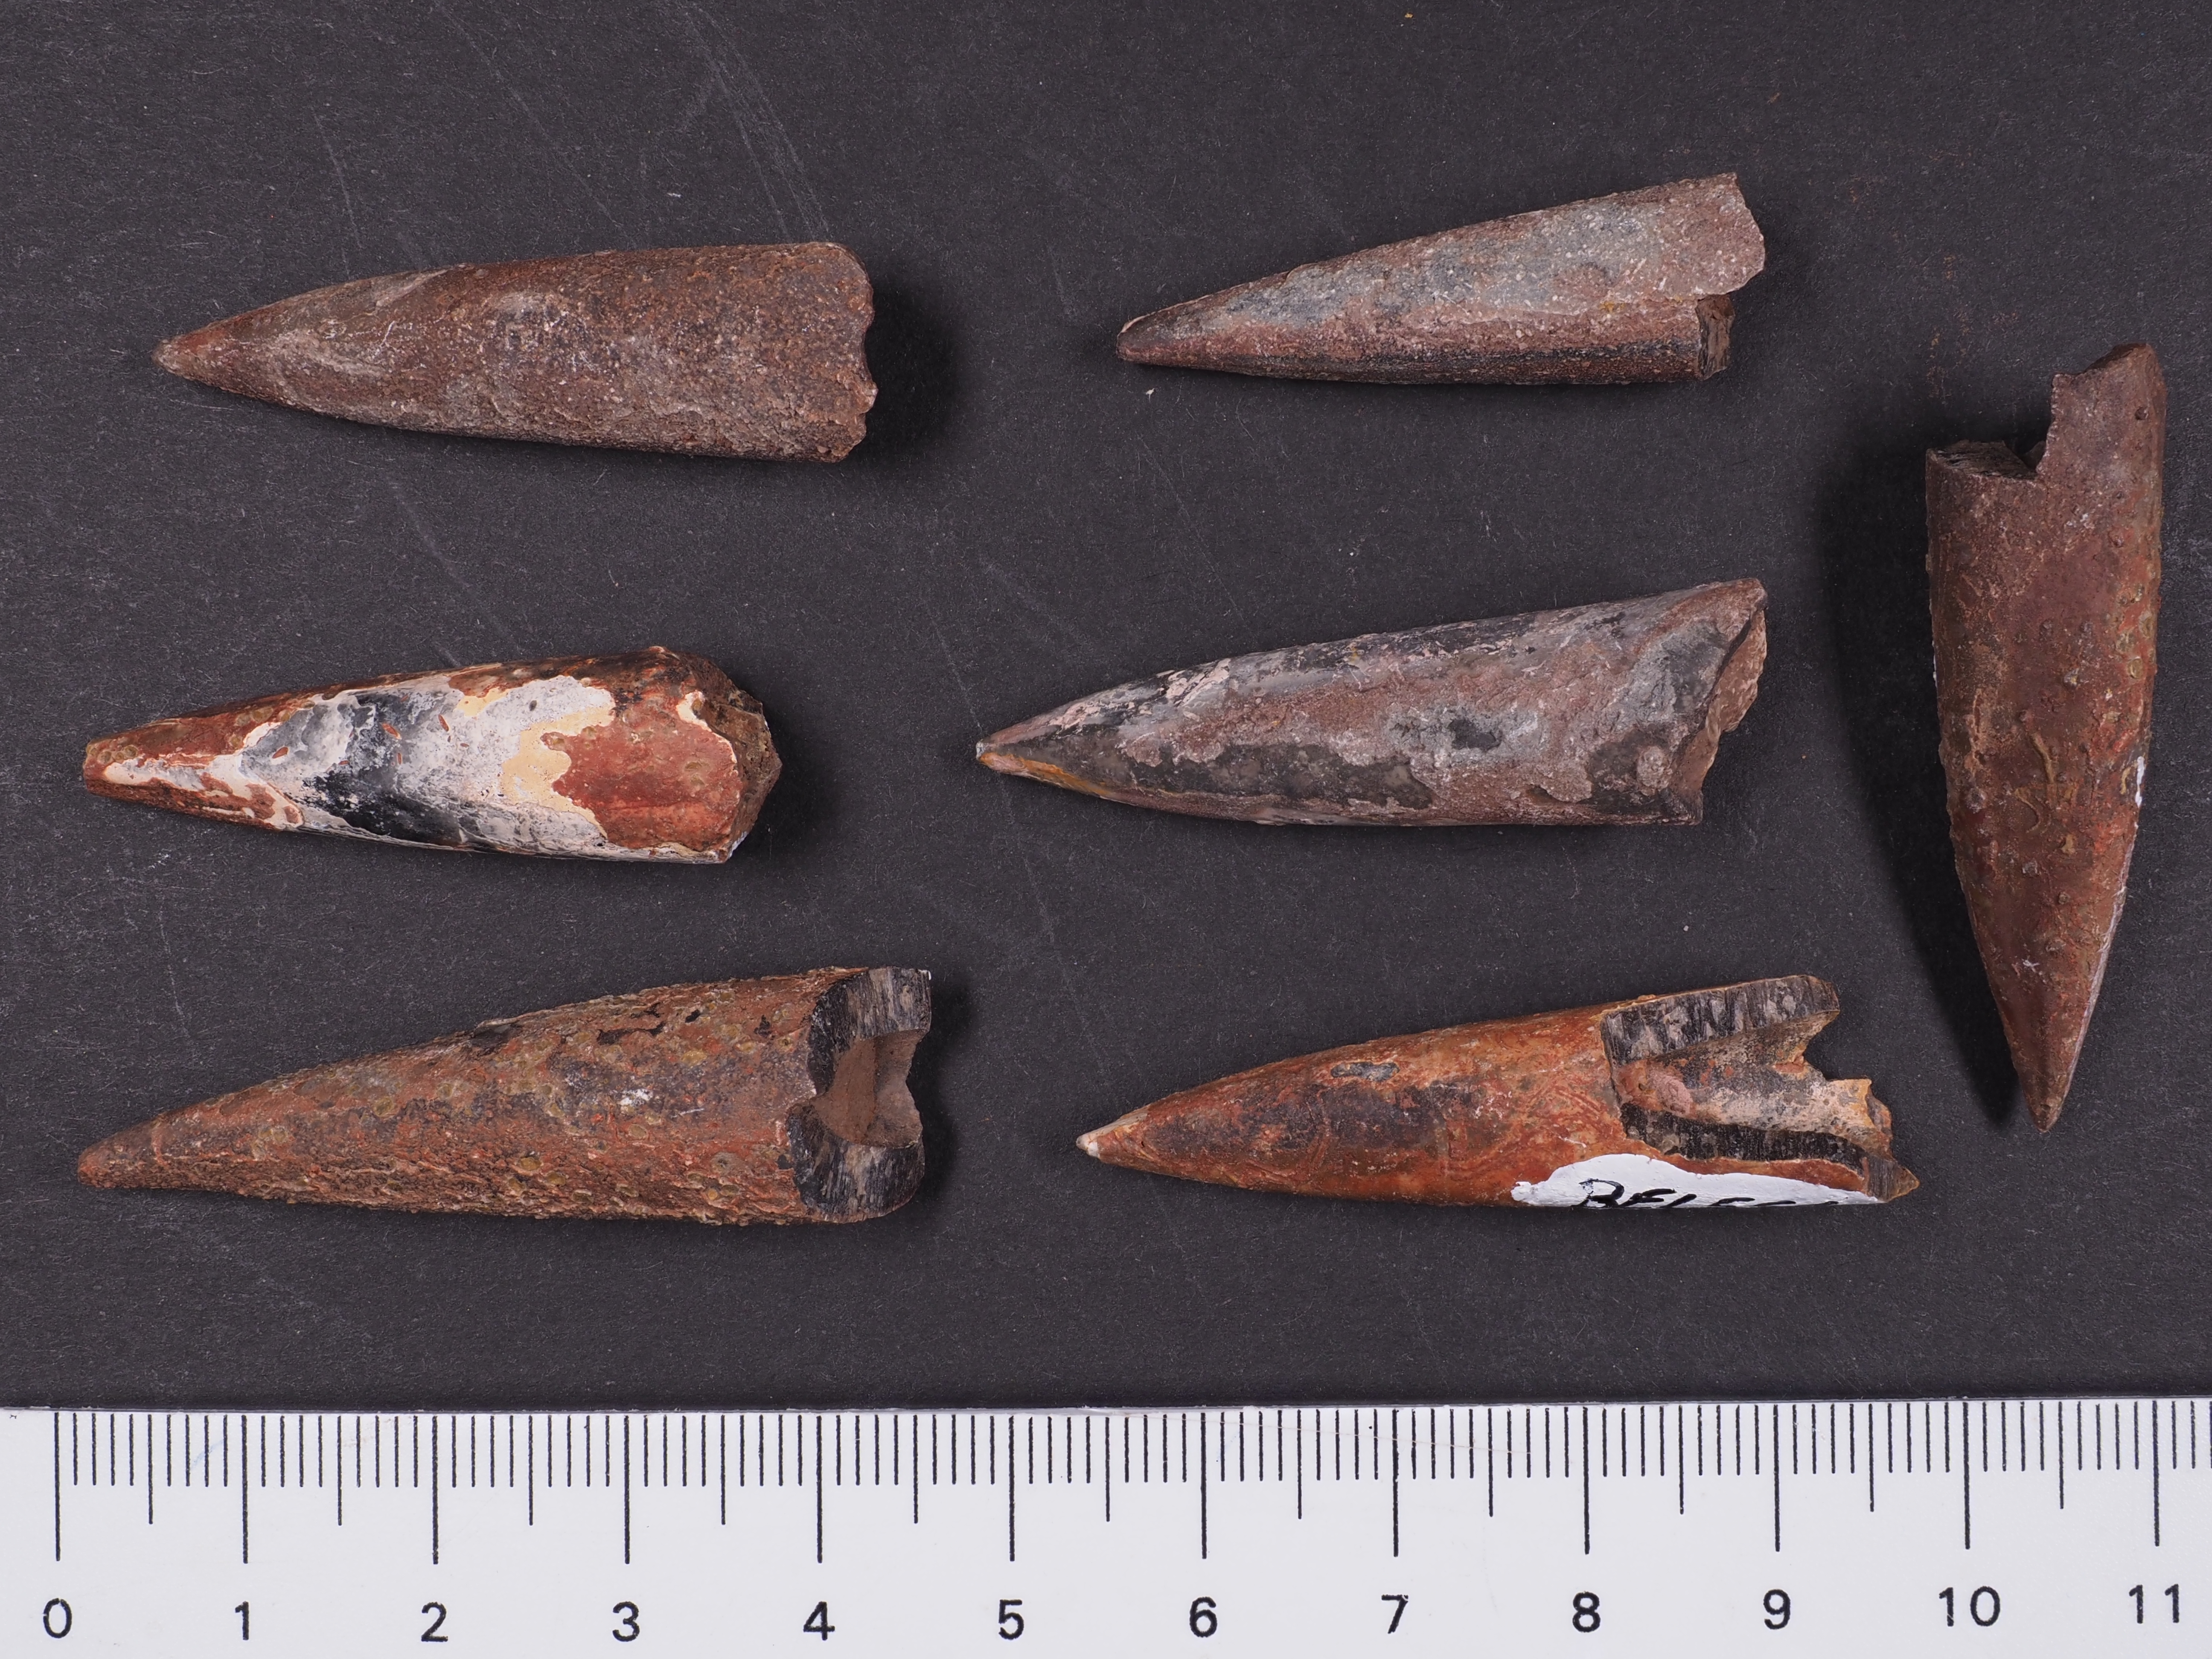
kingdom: Animalia
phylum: Mollusca
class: Cephalopoda
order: Belemnitida
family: Megateuthididae
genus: Acrocoelites
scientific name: Acrocoelites
